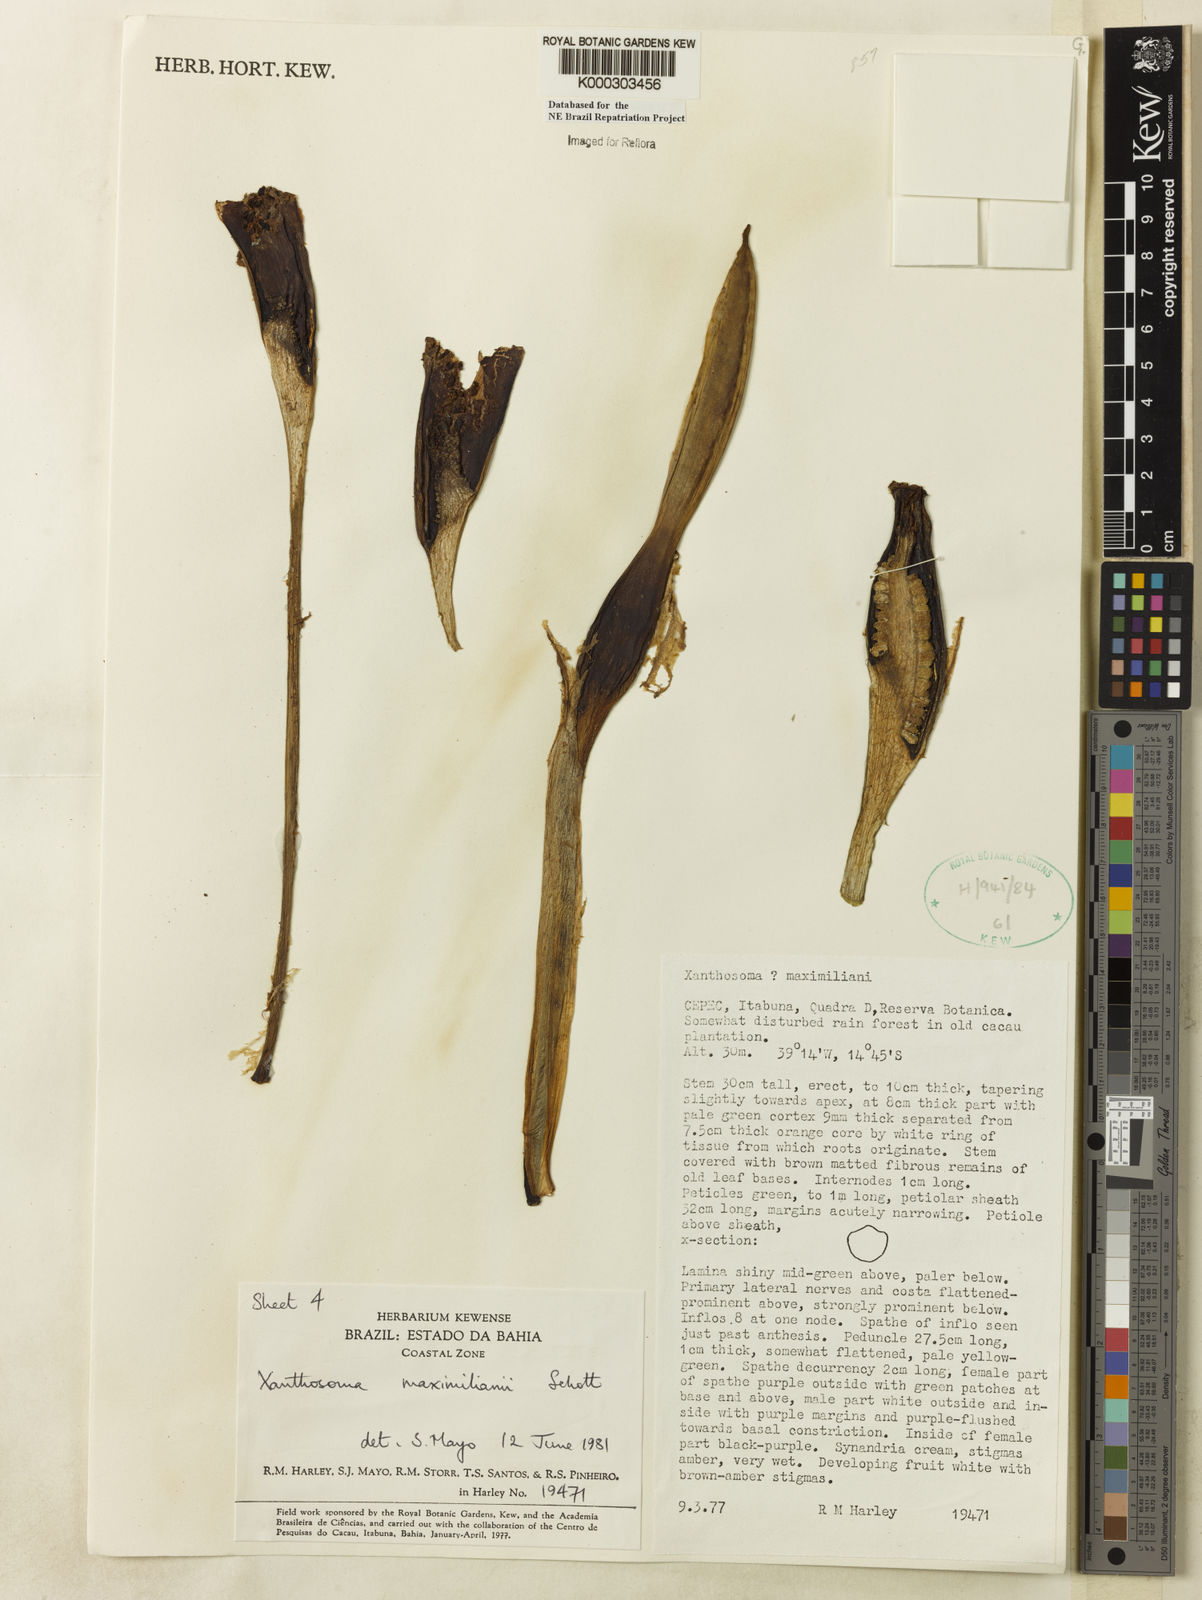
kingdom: Plantae
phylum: Tracheophyta
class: Liliopsida
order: Alismatales
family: Araceae
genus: Xanthosoma
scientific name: Xanthosoma maximiliani
